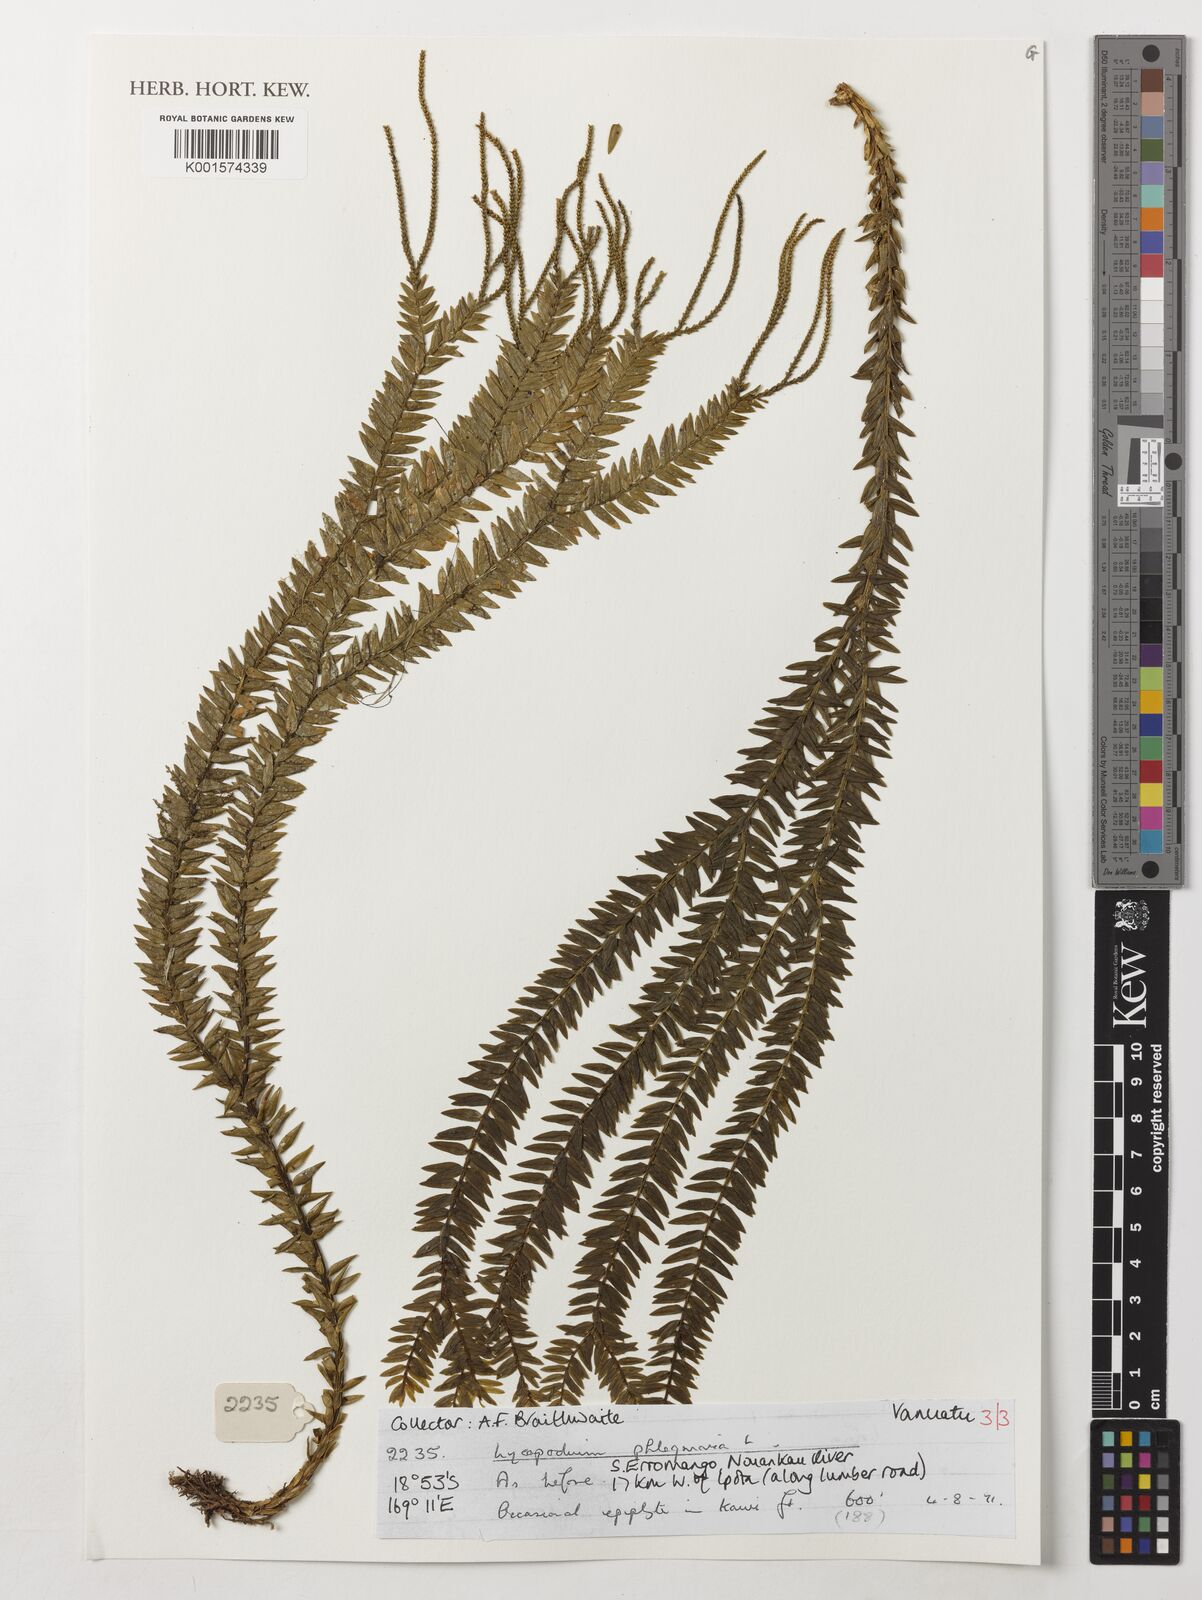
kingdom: Plantae
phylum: Tracheophyta
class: Lycopodiopsida
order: Lycopodiales
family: Lycopodiaceae
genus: Phlegmariurus
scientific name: Phlegmariurus phlegmaria
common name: Coarse tassel-fern
